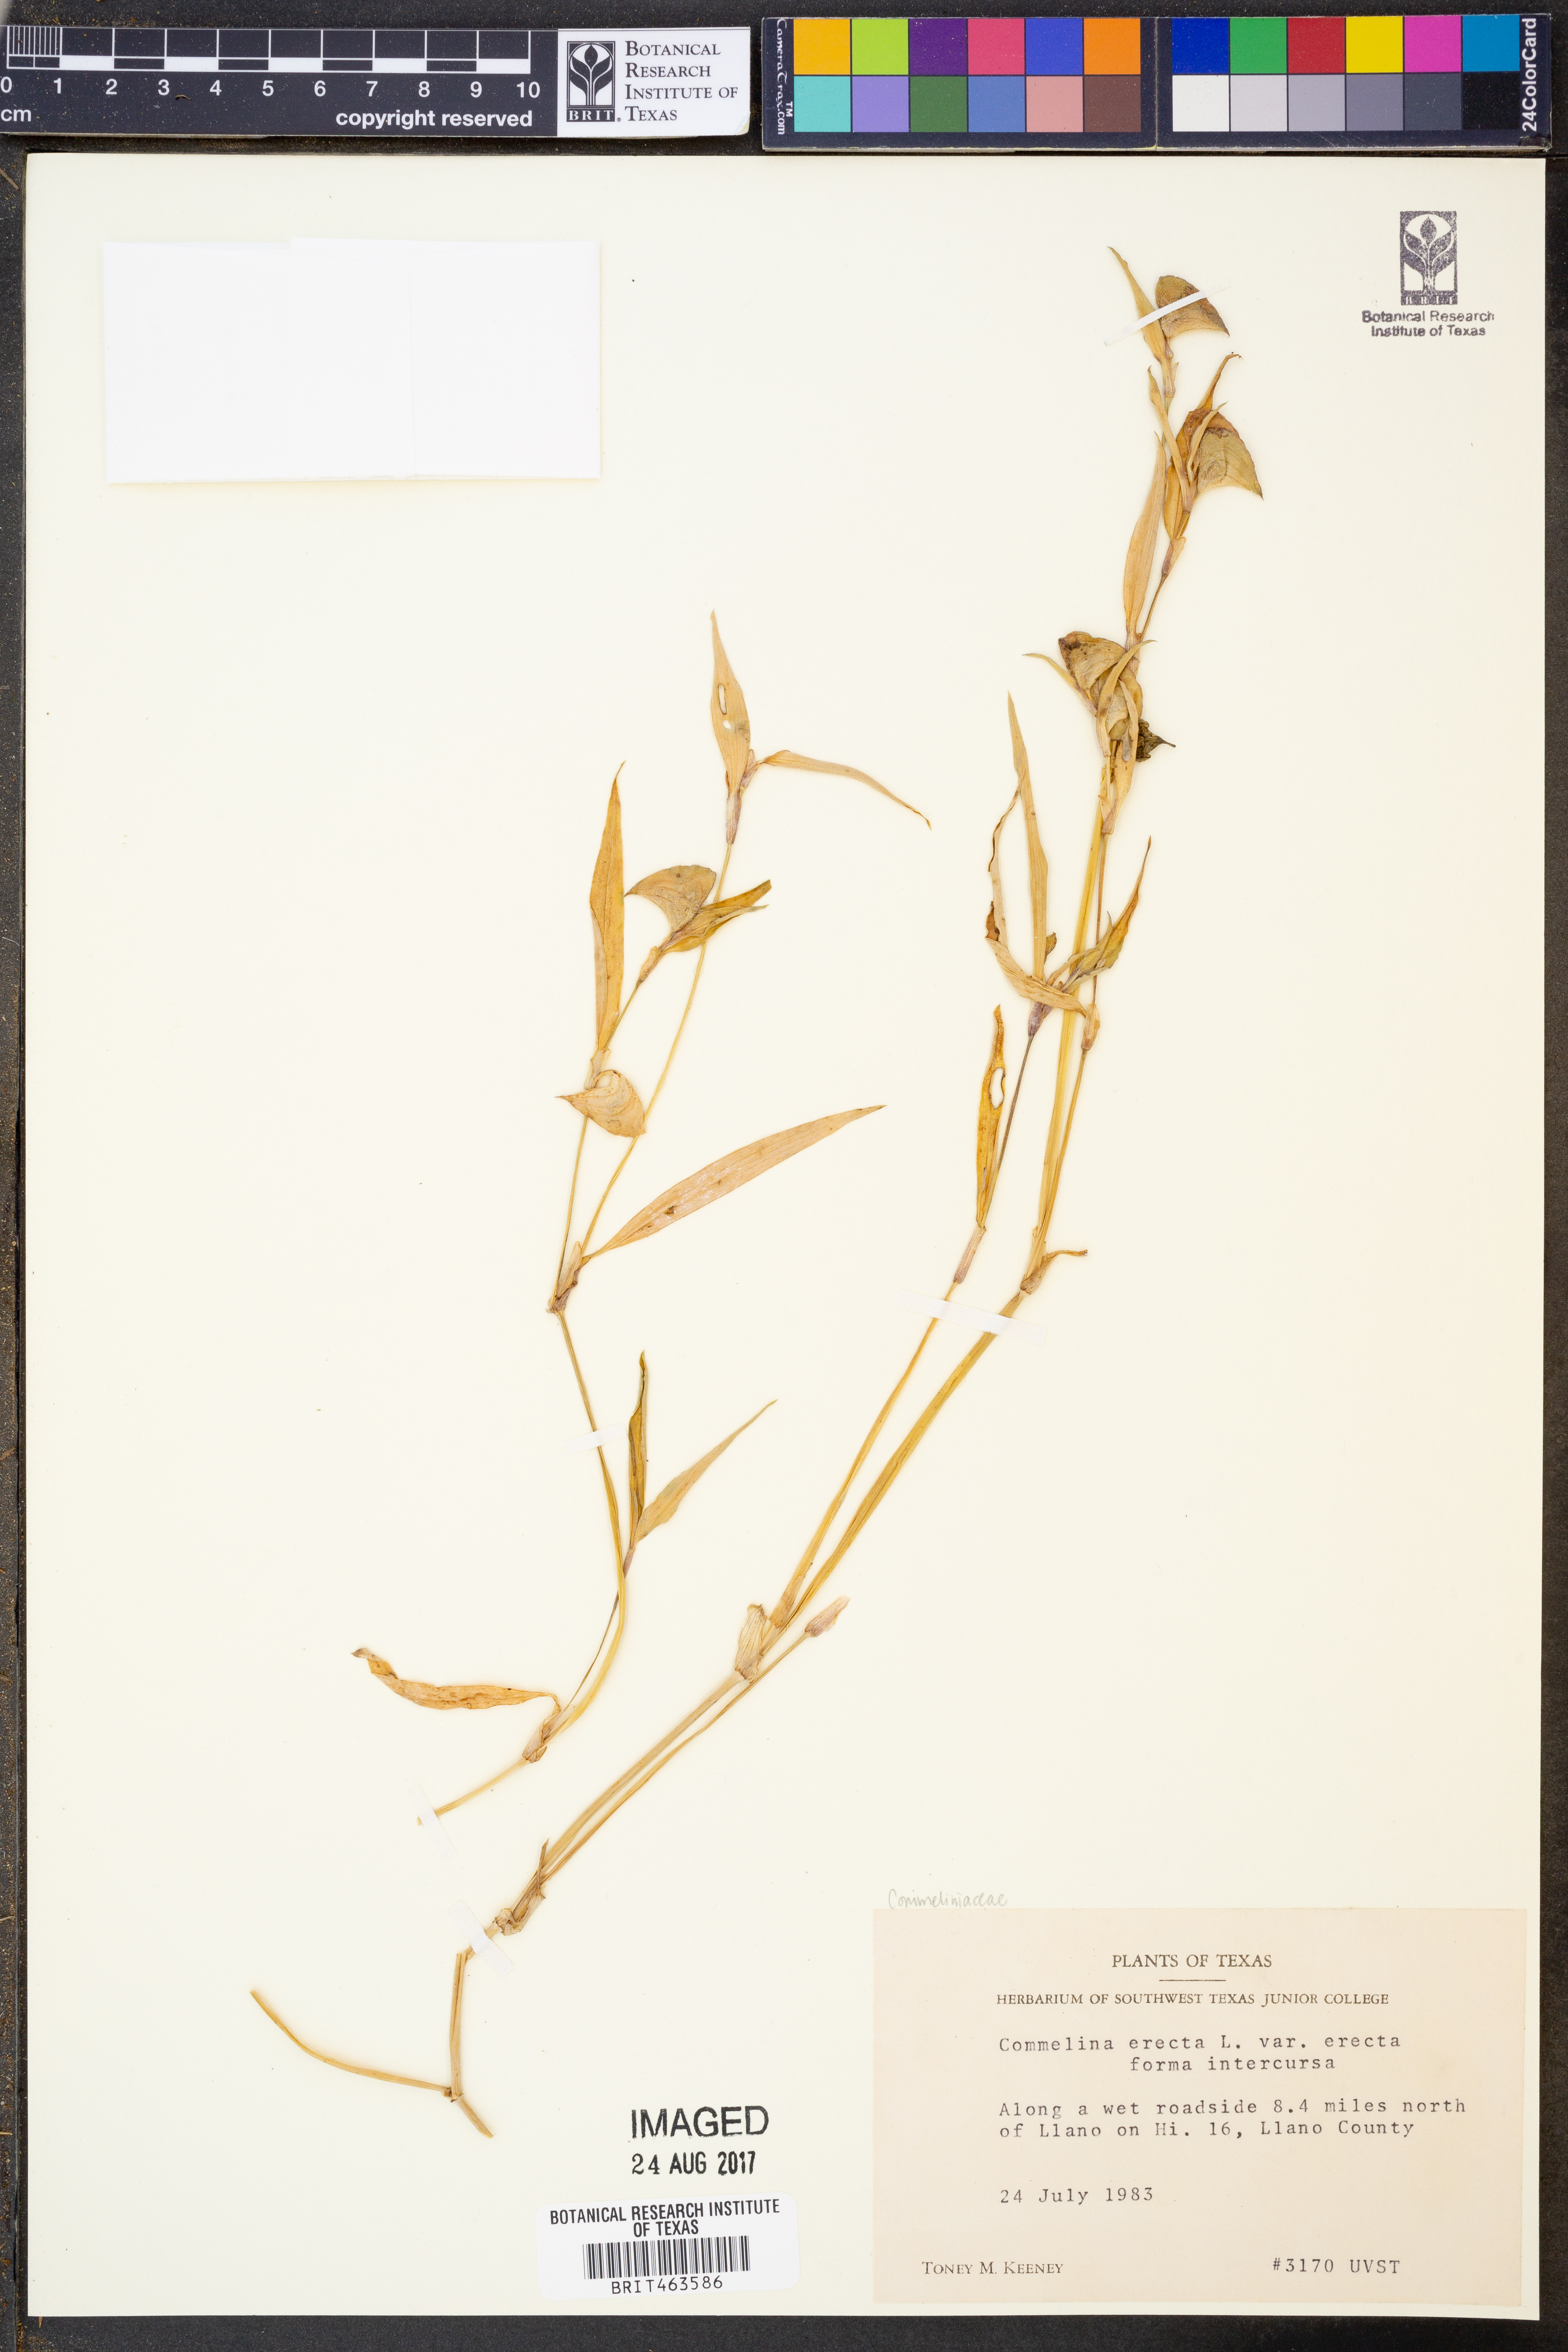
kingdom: Plantae
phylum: Tracheophyta
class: Liliopsida
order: Commelinales
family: Commelinaceae
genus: Commelina
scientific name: Commelina erecta
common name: Blousel blommetjie
